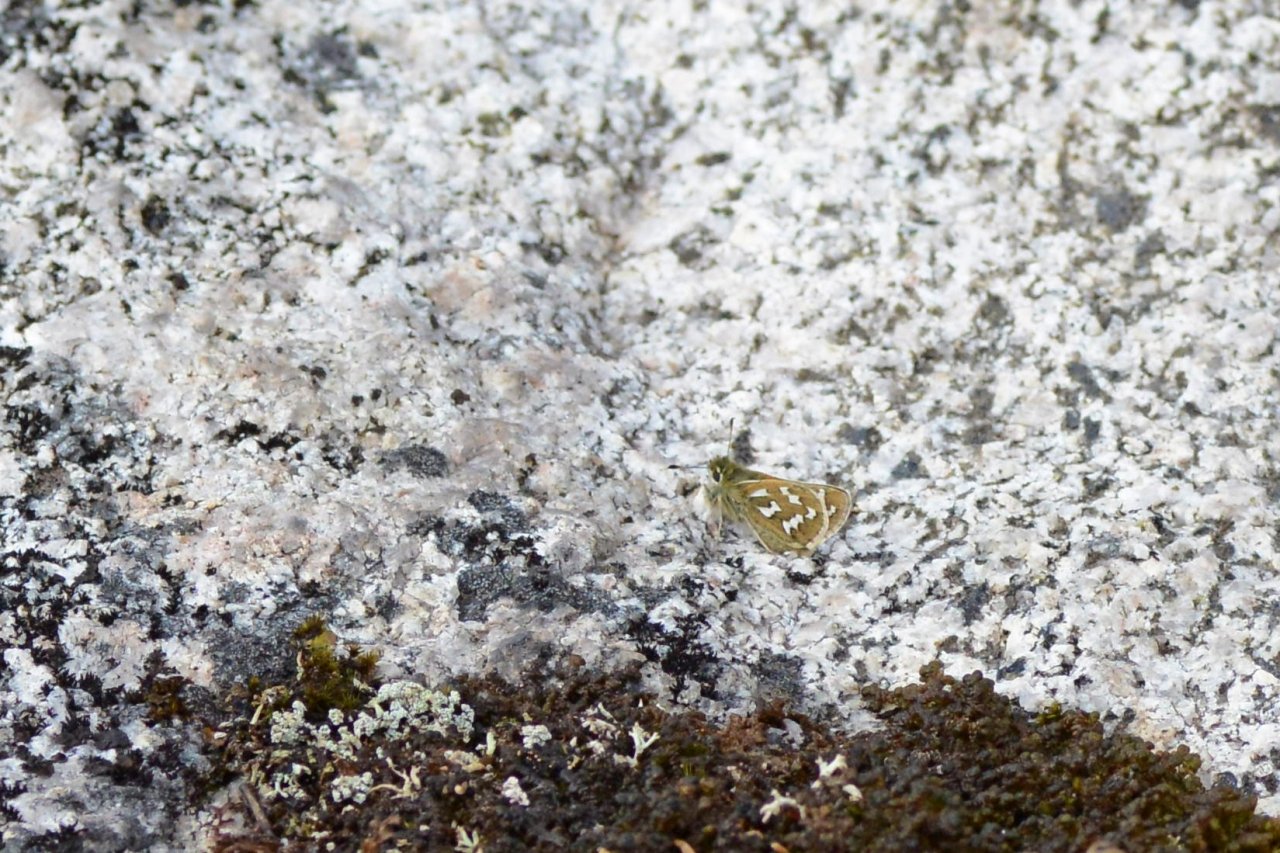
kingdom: Animalia
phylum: Arthropoda
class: Insecta
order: Lepidoptera
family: Hesperiidae
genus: Hesperia
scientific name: Hesperia comma
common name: Common Branded Skipper
